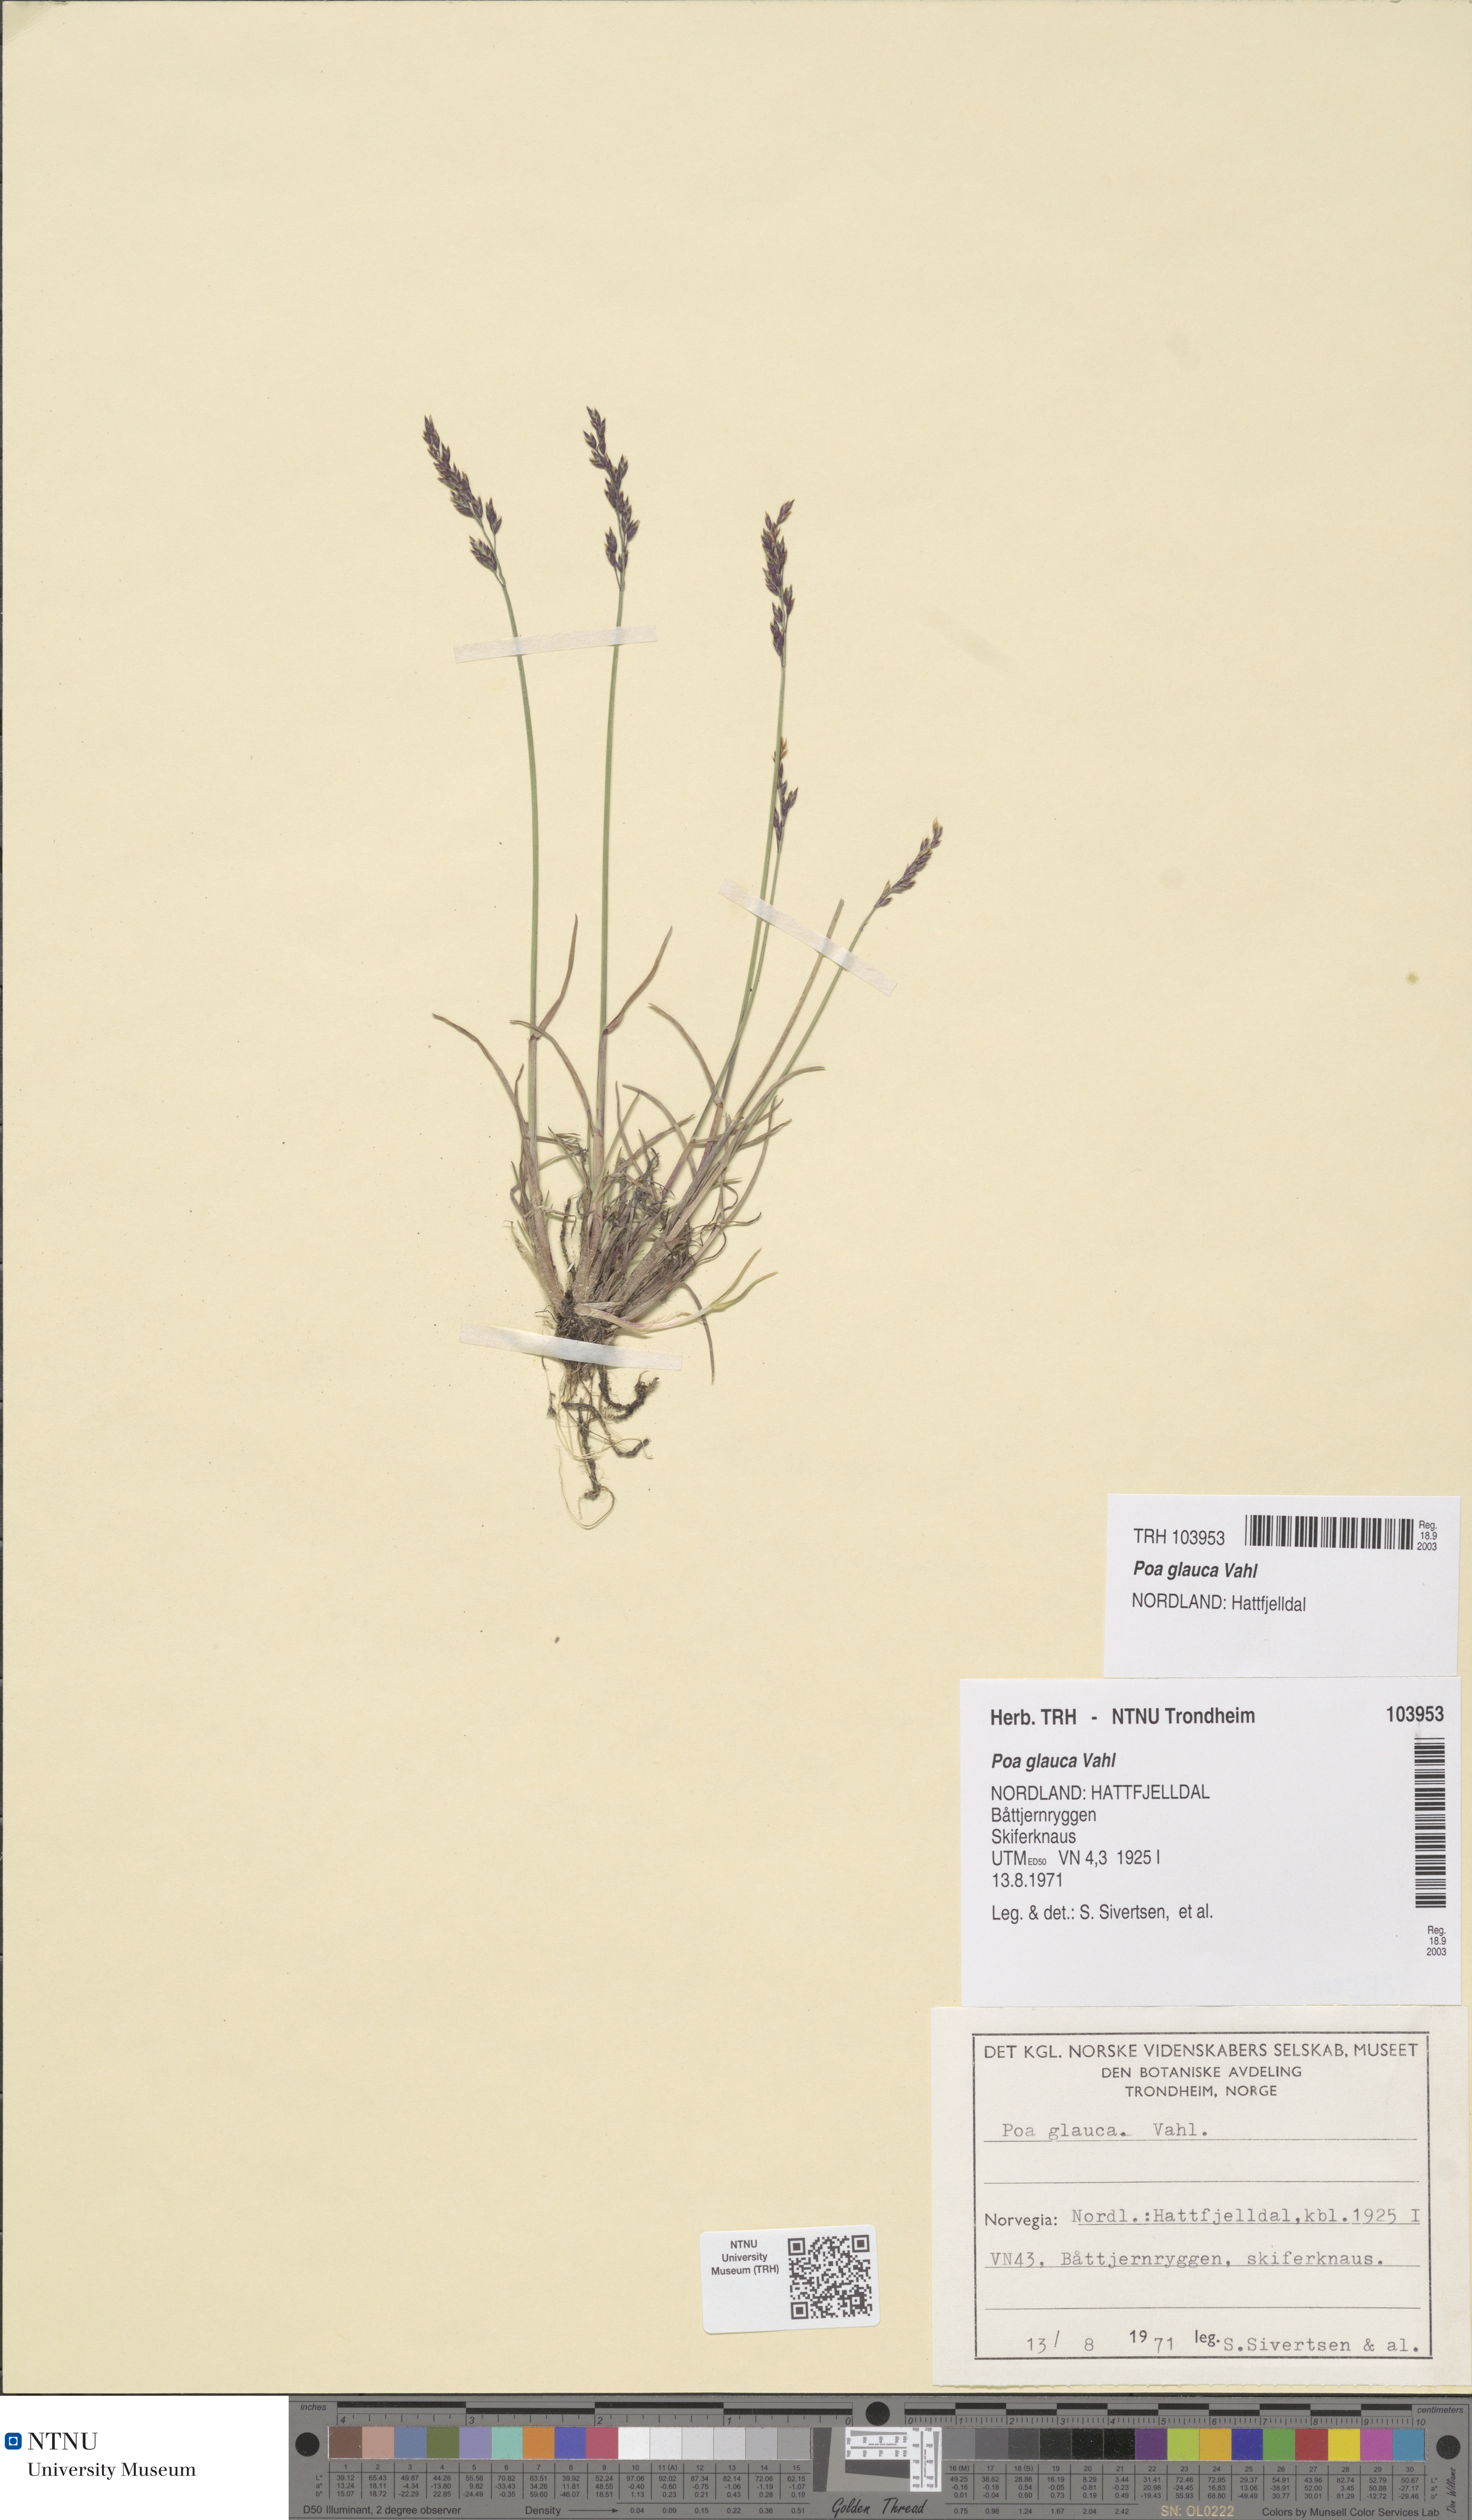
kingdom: Plantae
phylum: Tracheophyta
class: Liliopsida
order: Poales
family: Poaceae
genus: Poa
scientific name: Poa glauca
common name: Glaucous bluegrass
